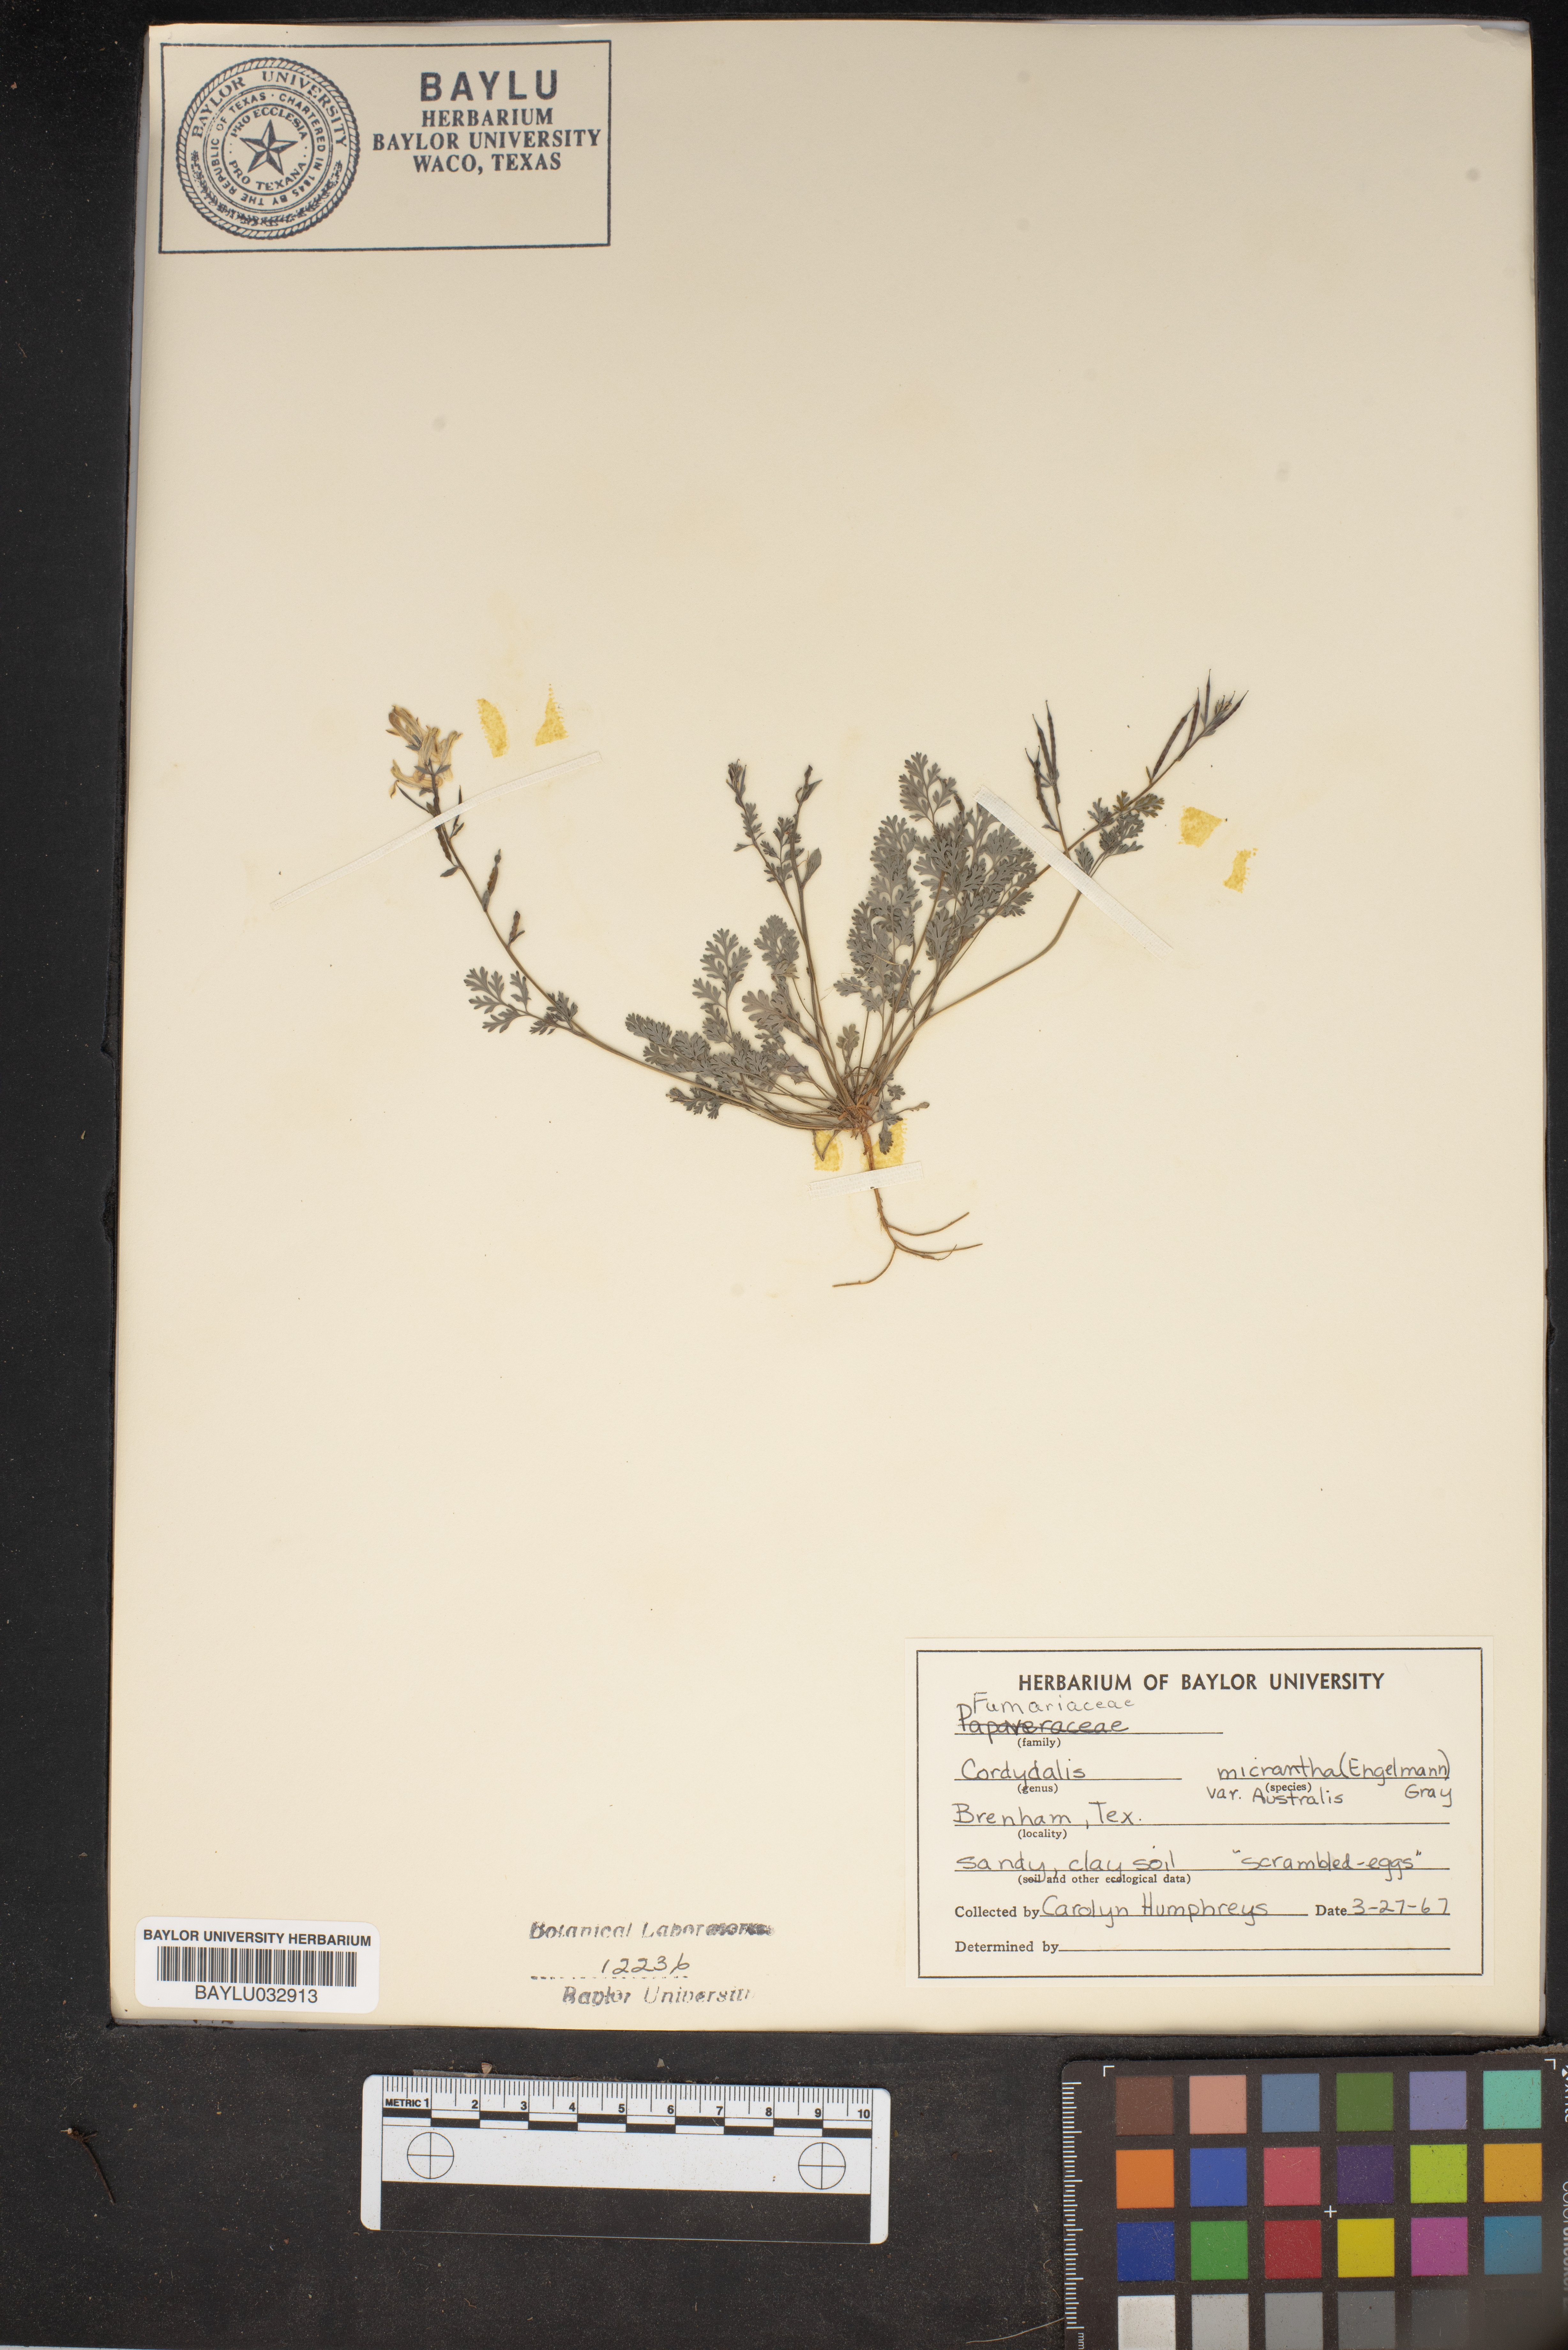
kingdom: Plantae
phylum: Tracheophyta
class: Magnoliopsida
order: Ranunculales
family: Papaveraceae
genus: Corydalis
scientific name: Corydalis micrantha
